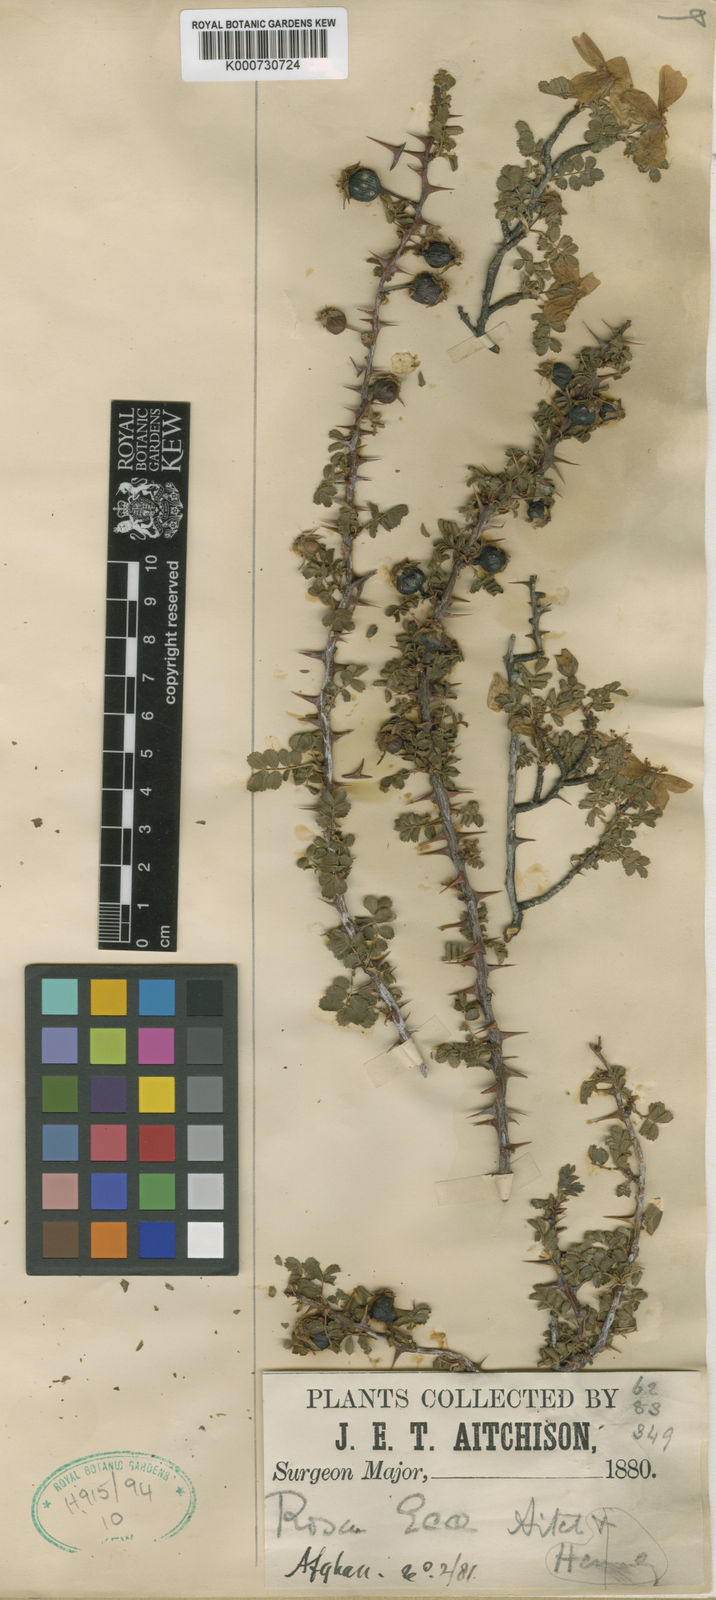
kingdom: Plantae
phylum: Tracheophyta
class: Magnoliopsida
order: Rosales
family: Rosaceae
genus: Rosa
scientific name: Rosa ecae
